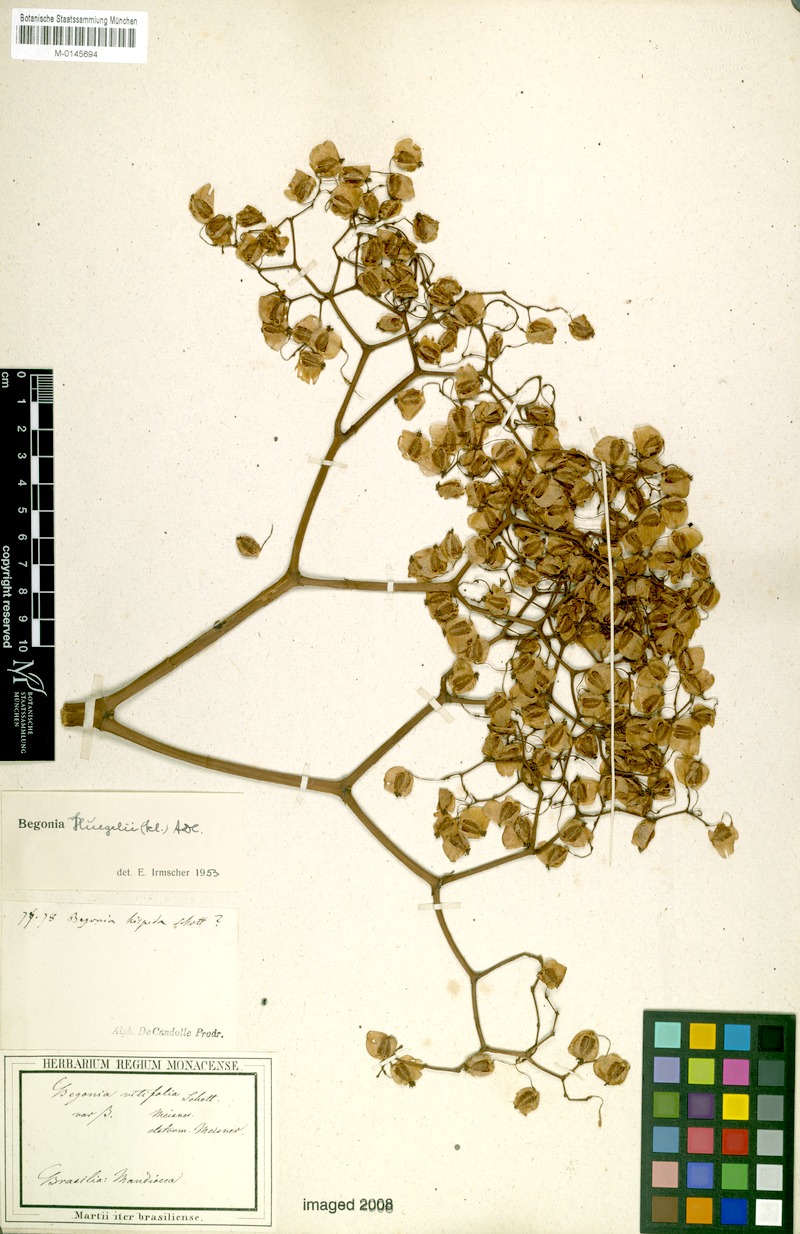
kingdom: Plantae
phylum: Tracheophyta
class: Magnoliopsida
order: Cucurbitales
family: Begoniaceae
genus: Begonia
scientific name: Begonia huegelii
